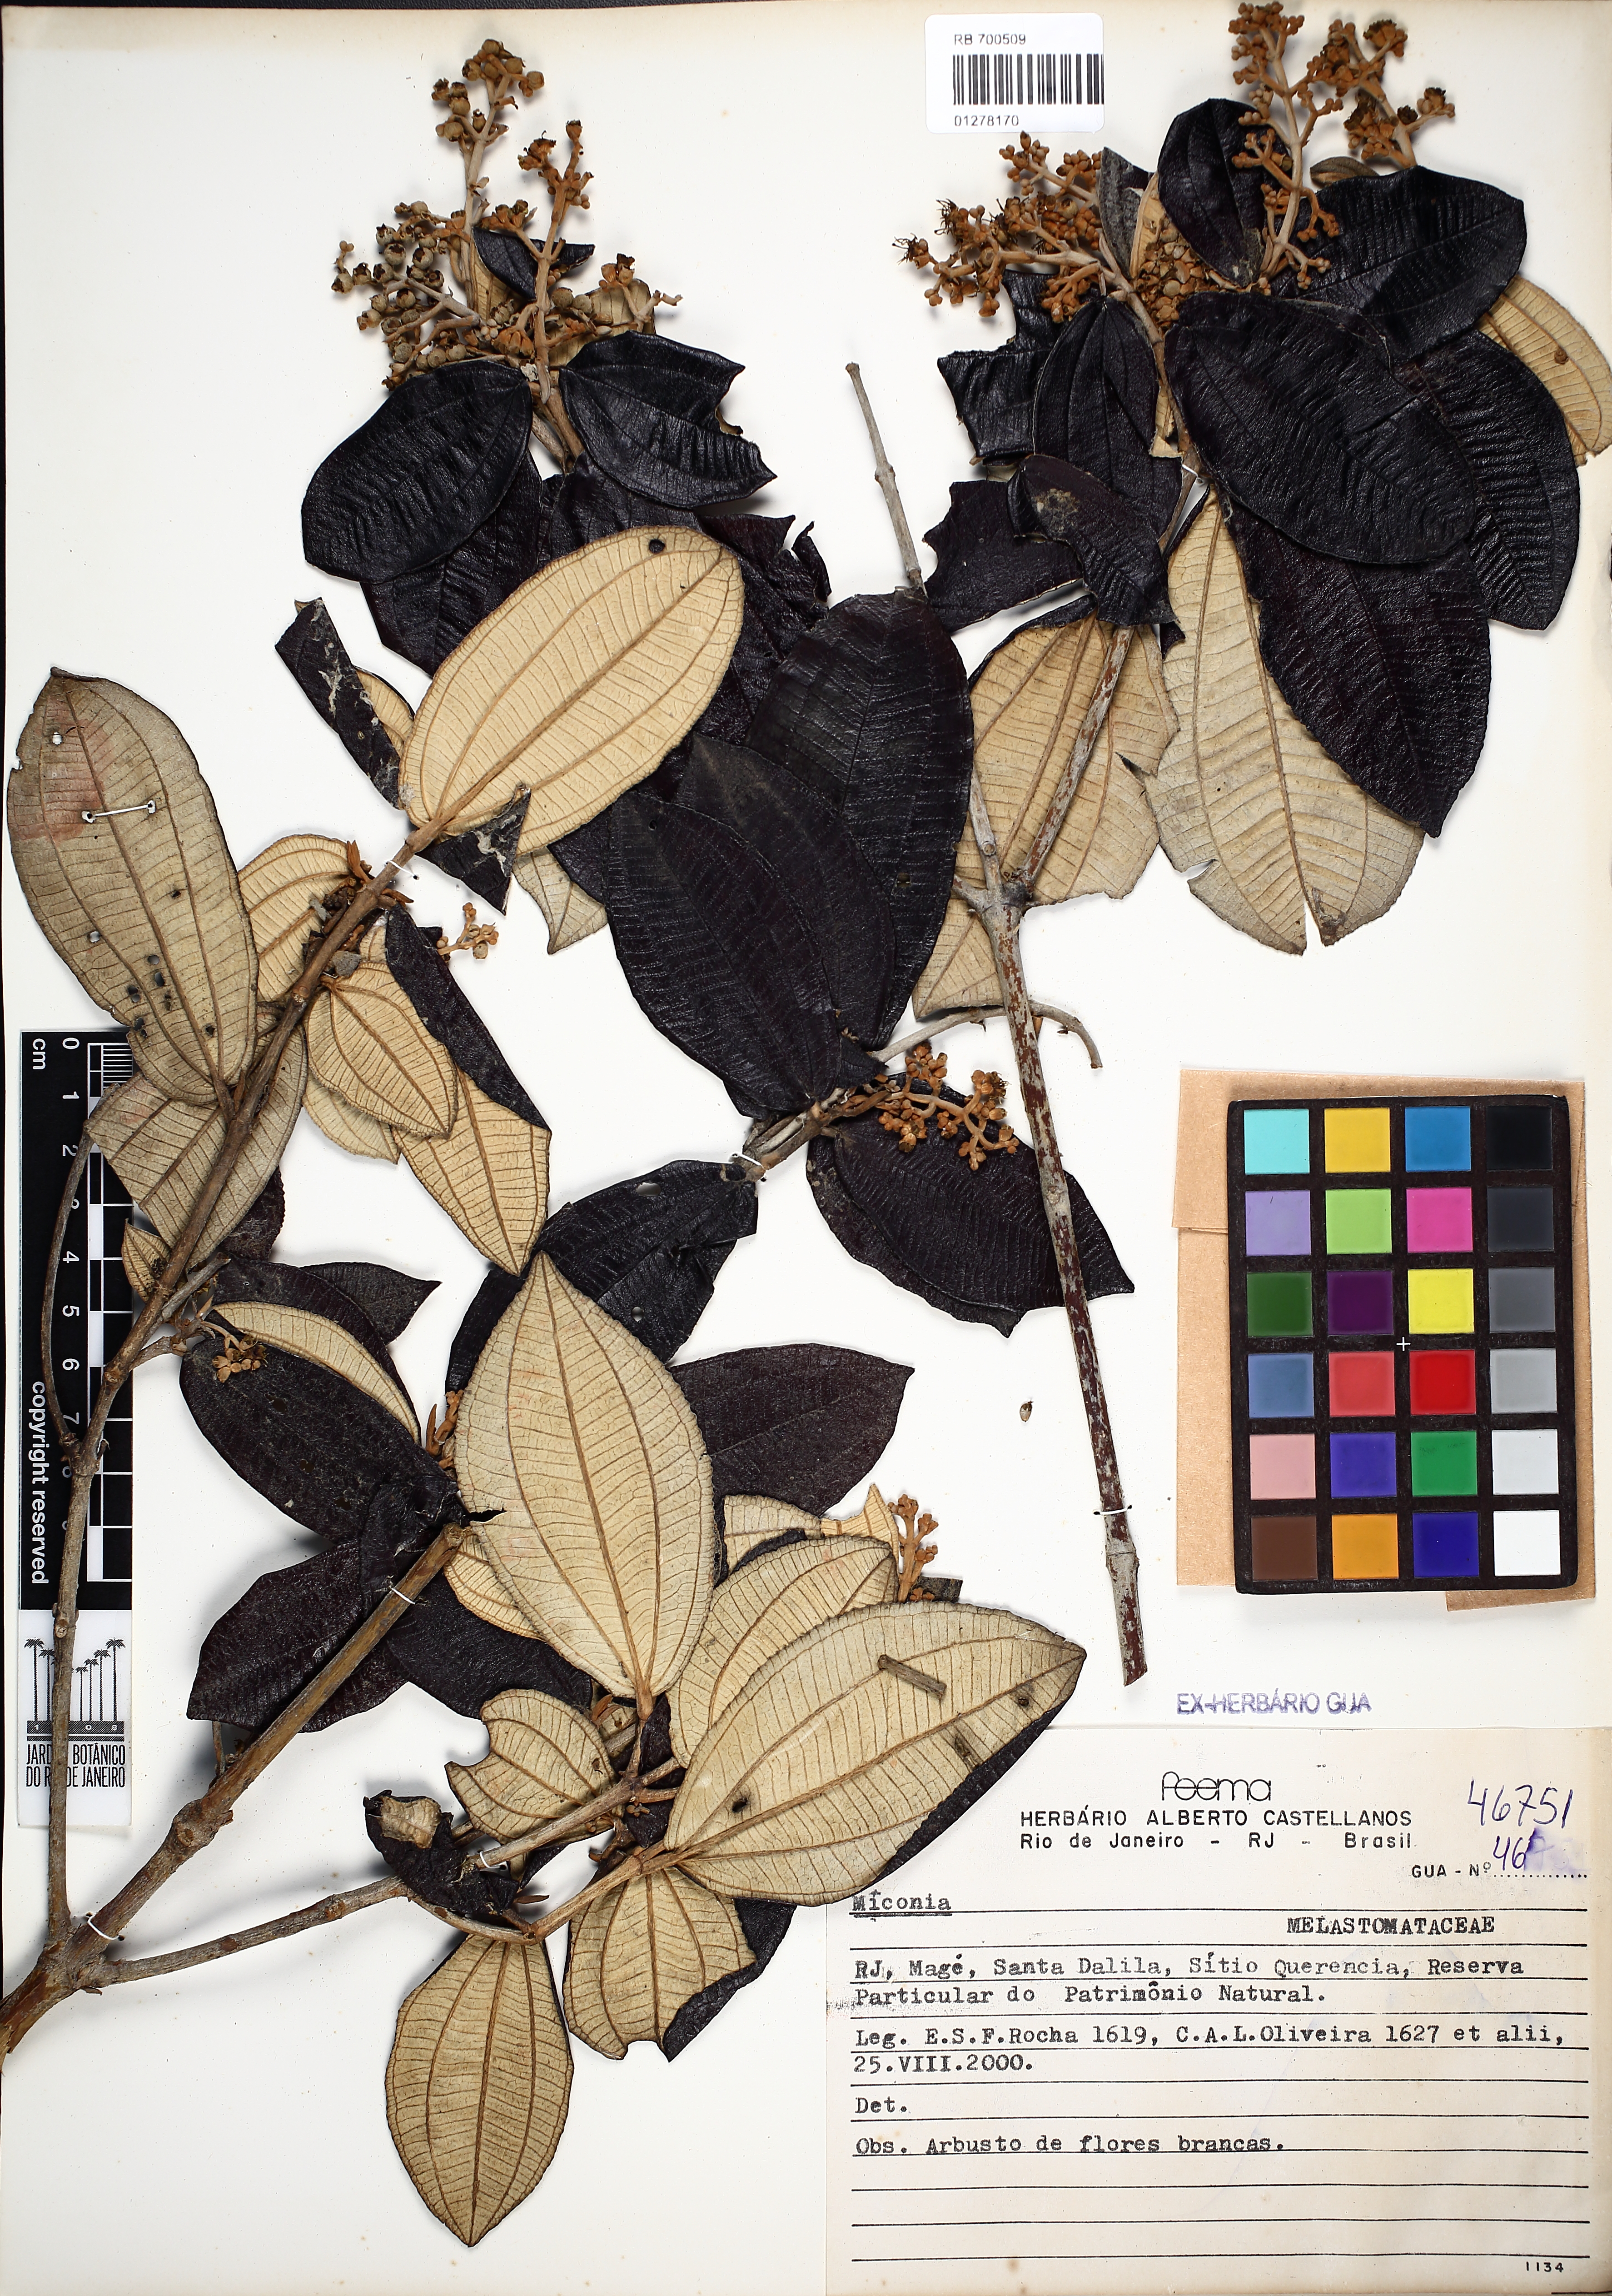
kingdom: Plantae
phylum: Tracheophyta
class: Magnoliopsida
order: Myrtales
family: Melastomataceae
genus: Miconia
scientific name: Miconia
